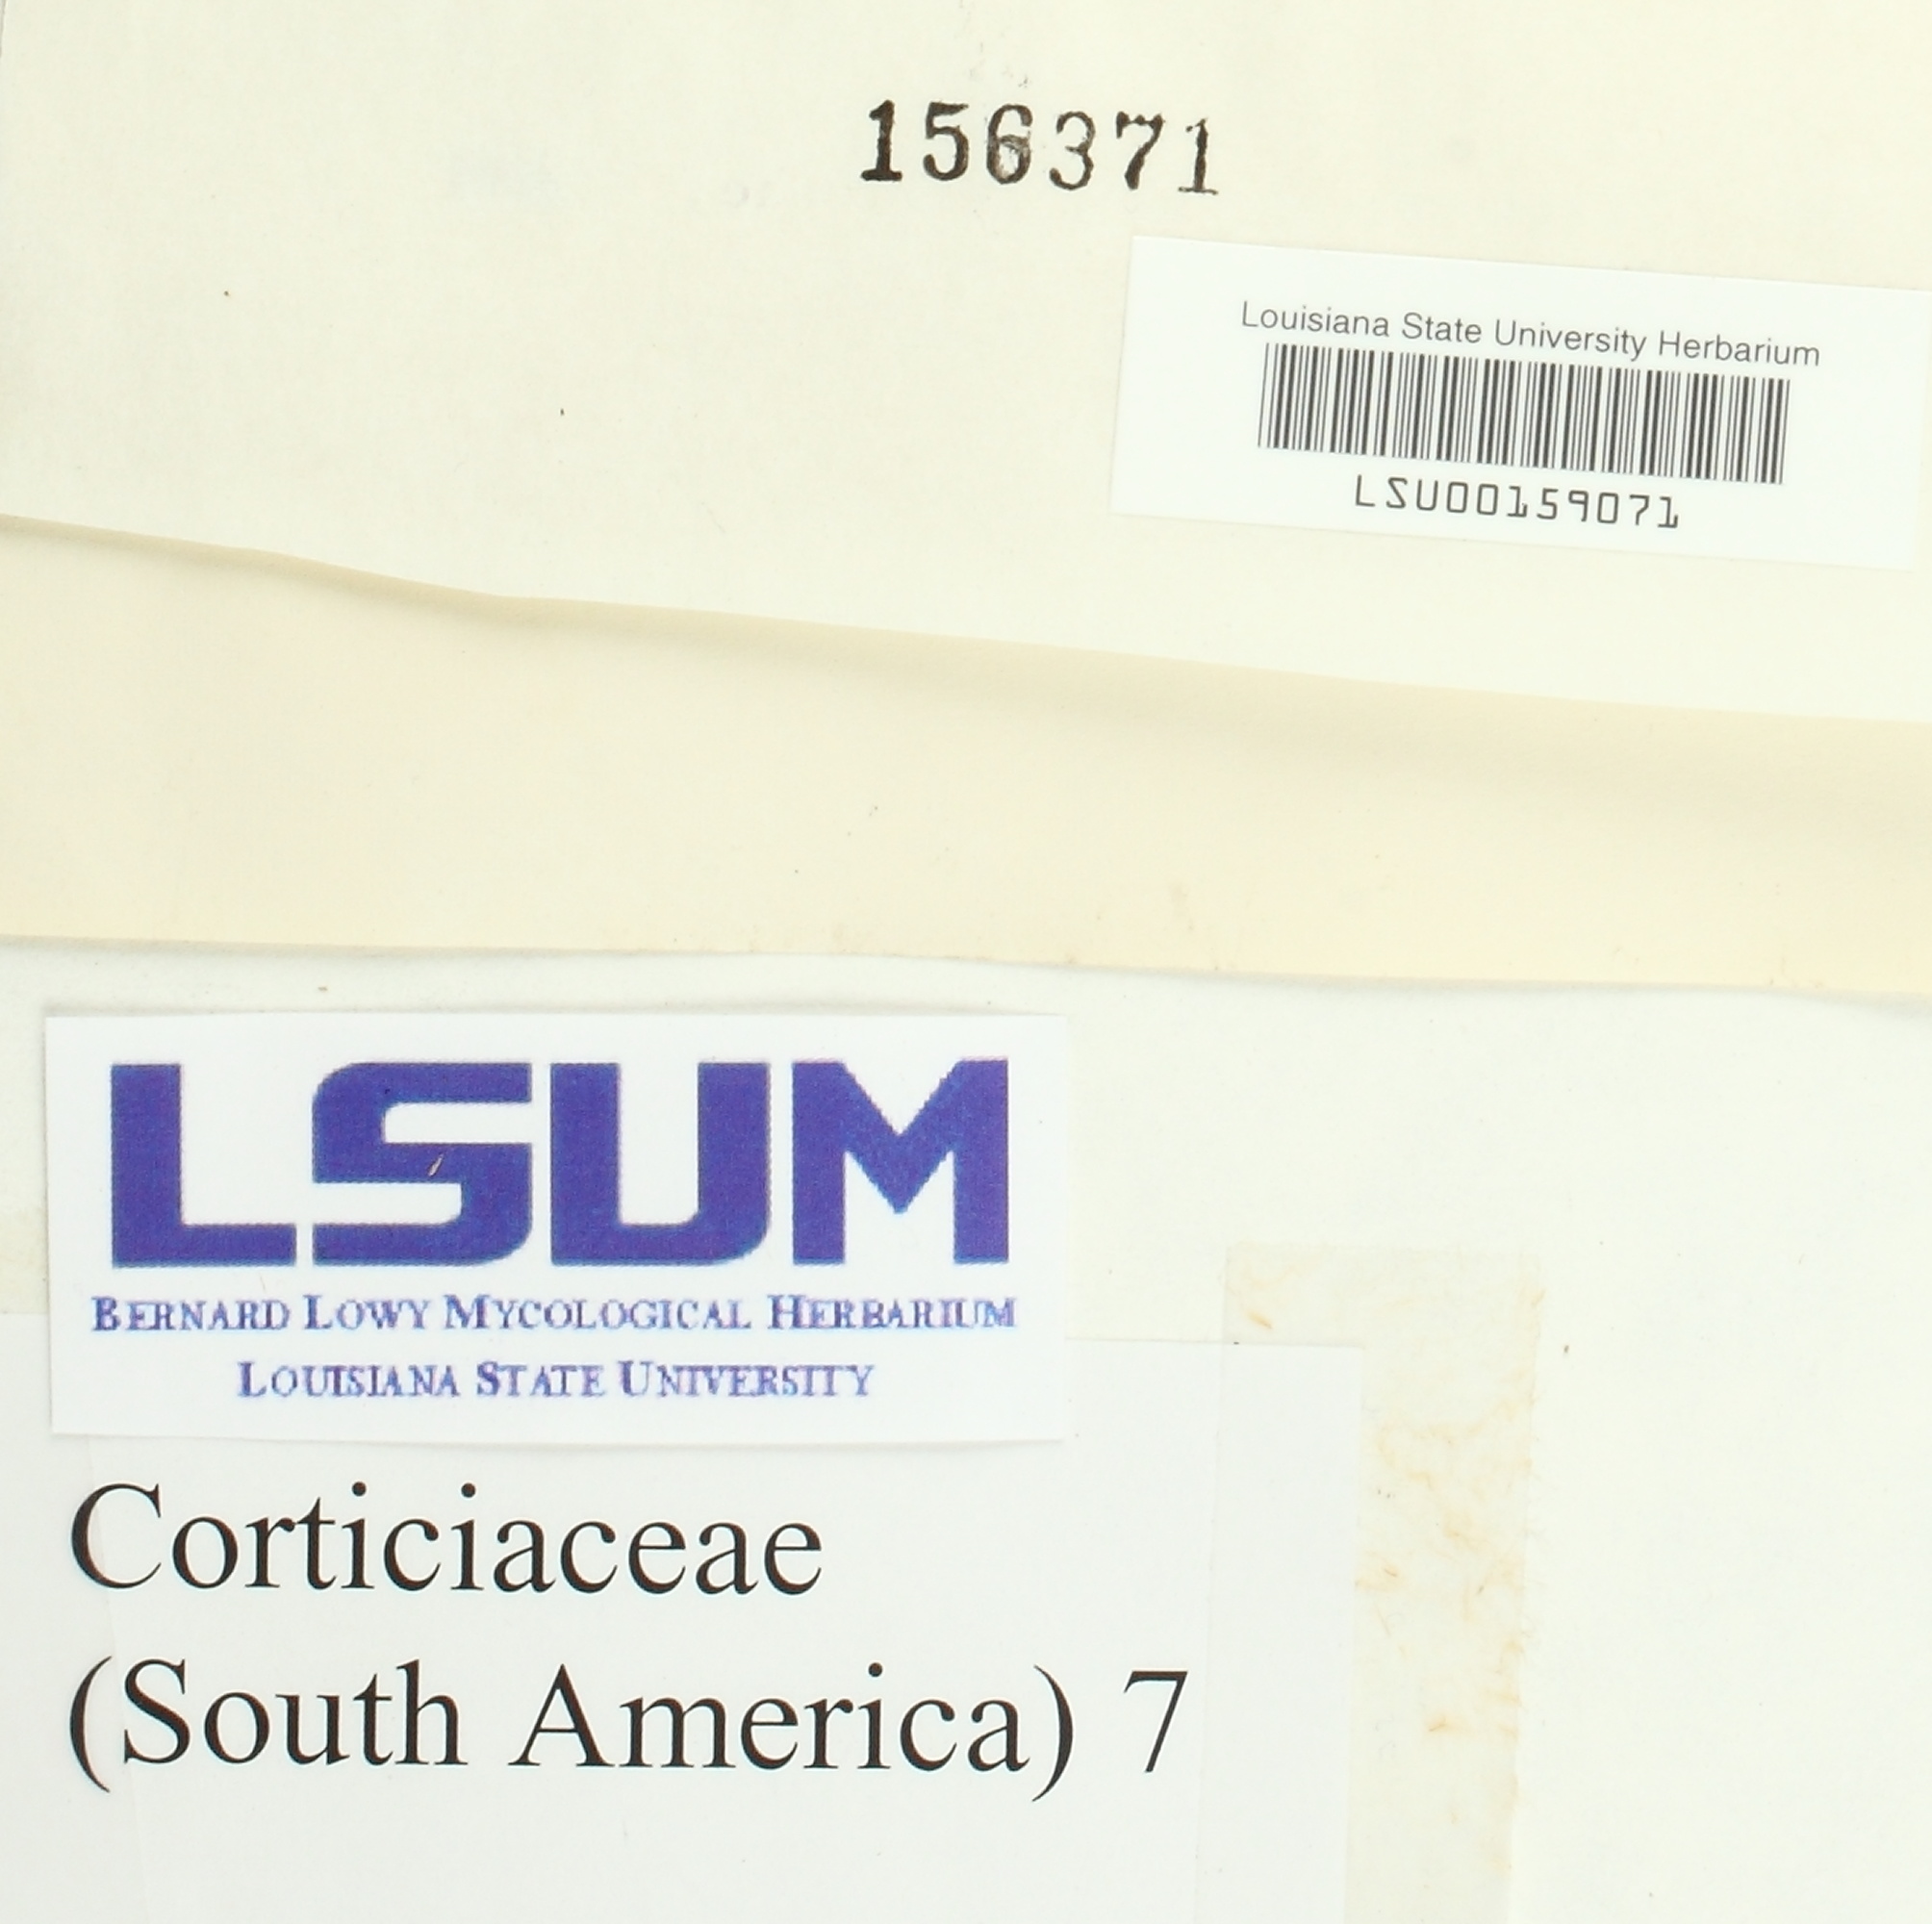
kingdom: Fungi
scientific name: Fungi
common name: Fungi
